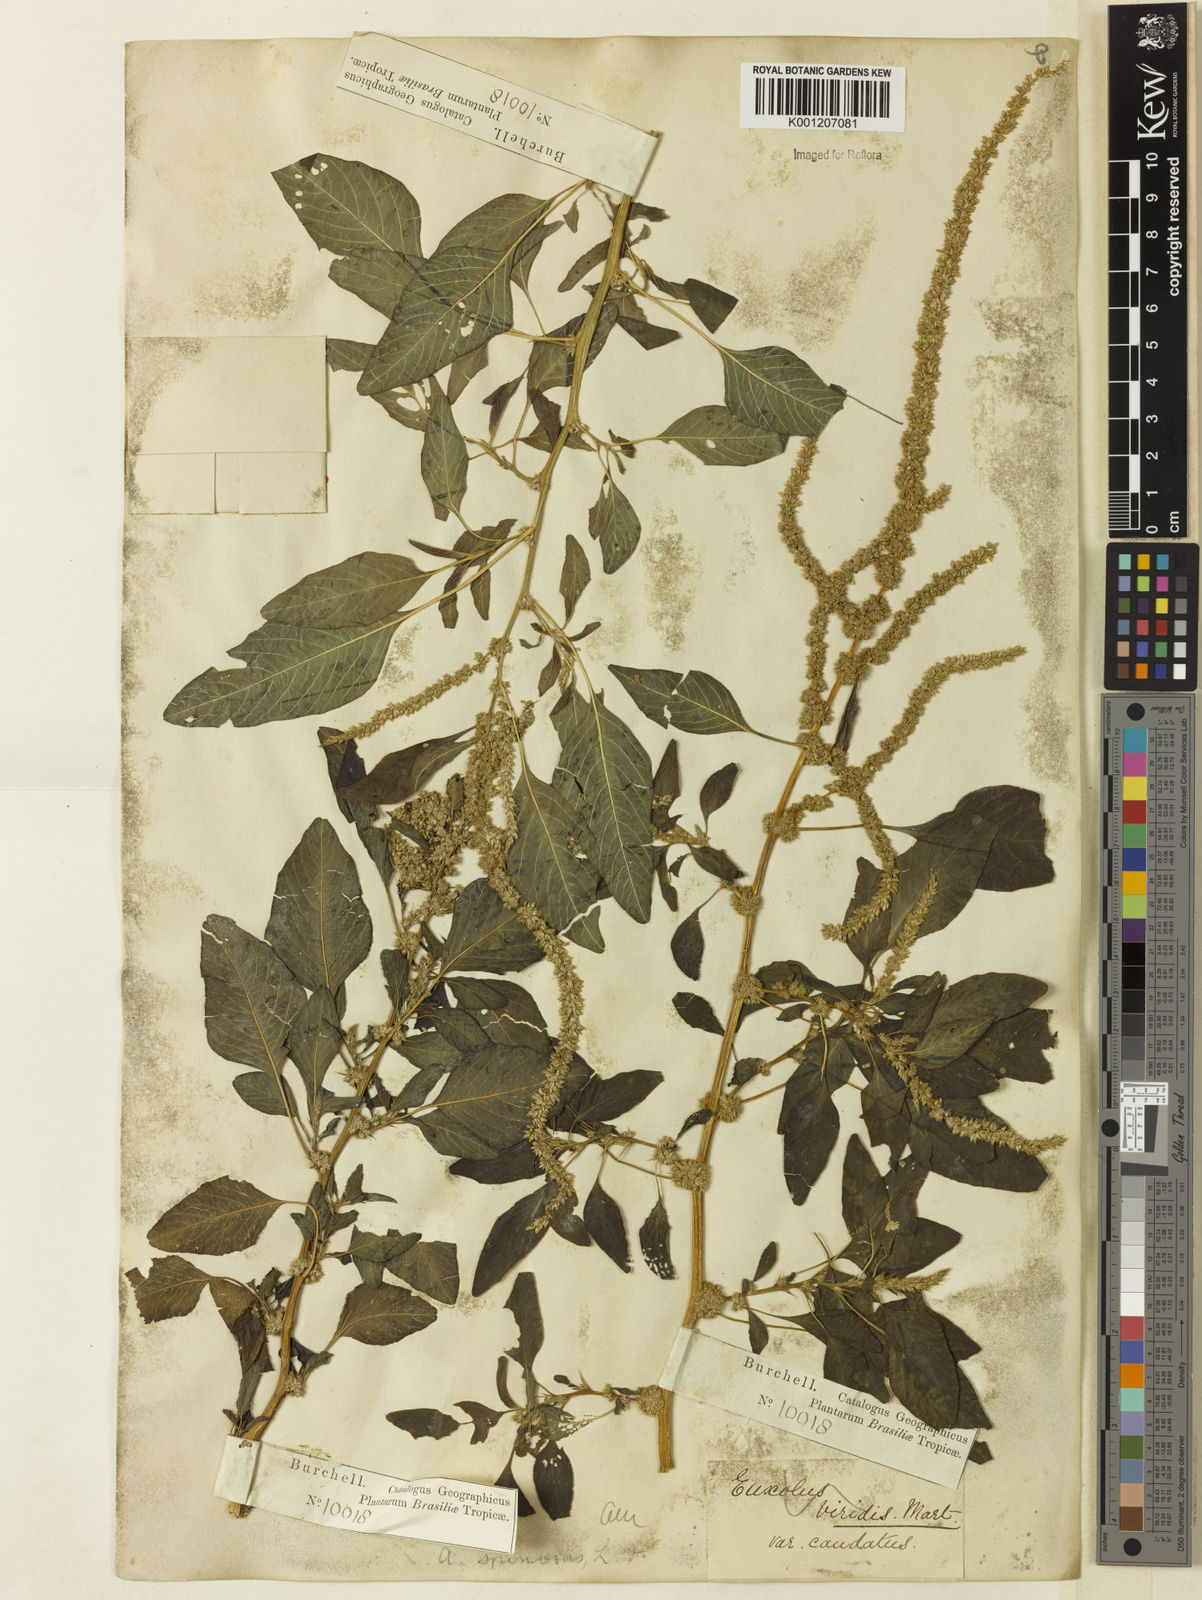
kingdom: Plantae
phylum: Tracheophyta
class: Magnoliopsida
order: Caryophyllales
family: Amaranthaceae
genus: Amaranthus
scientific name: Amaranthus spinosus
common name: Spiny amaranth
